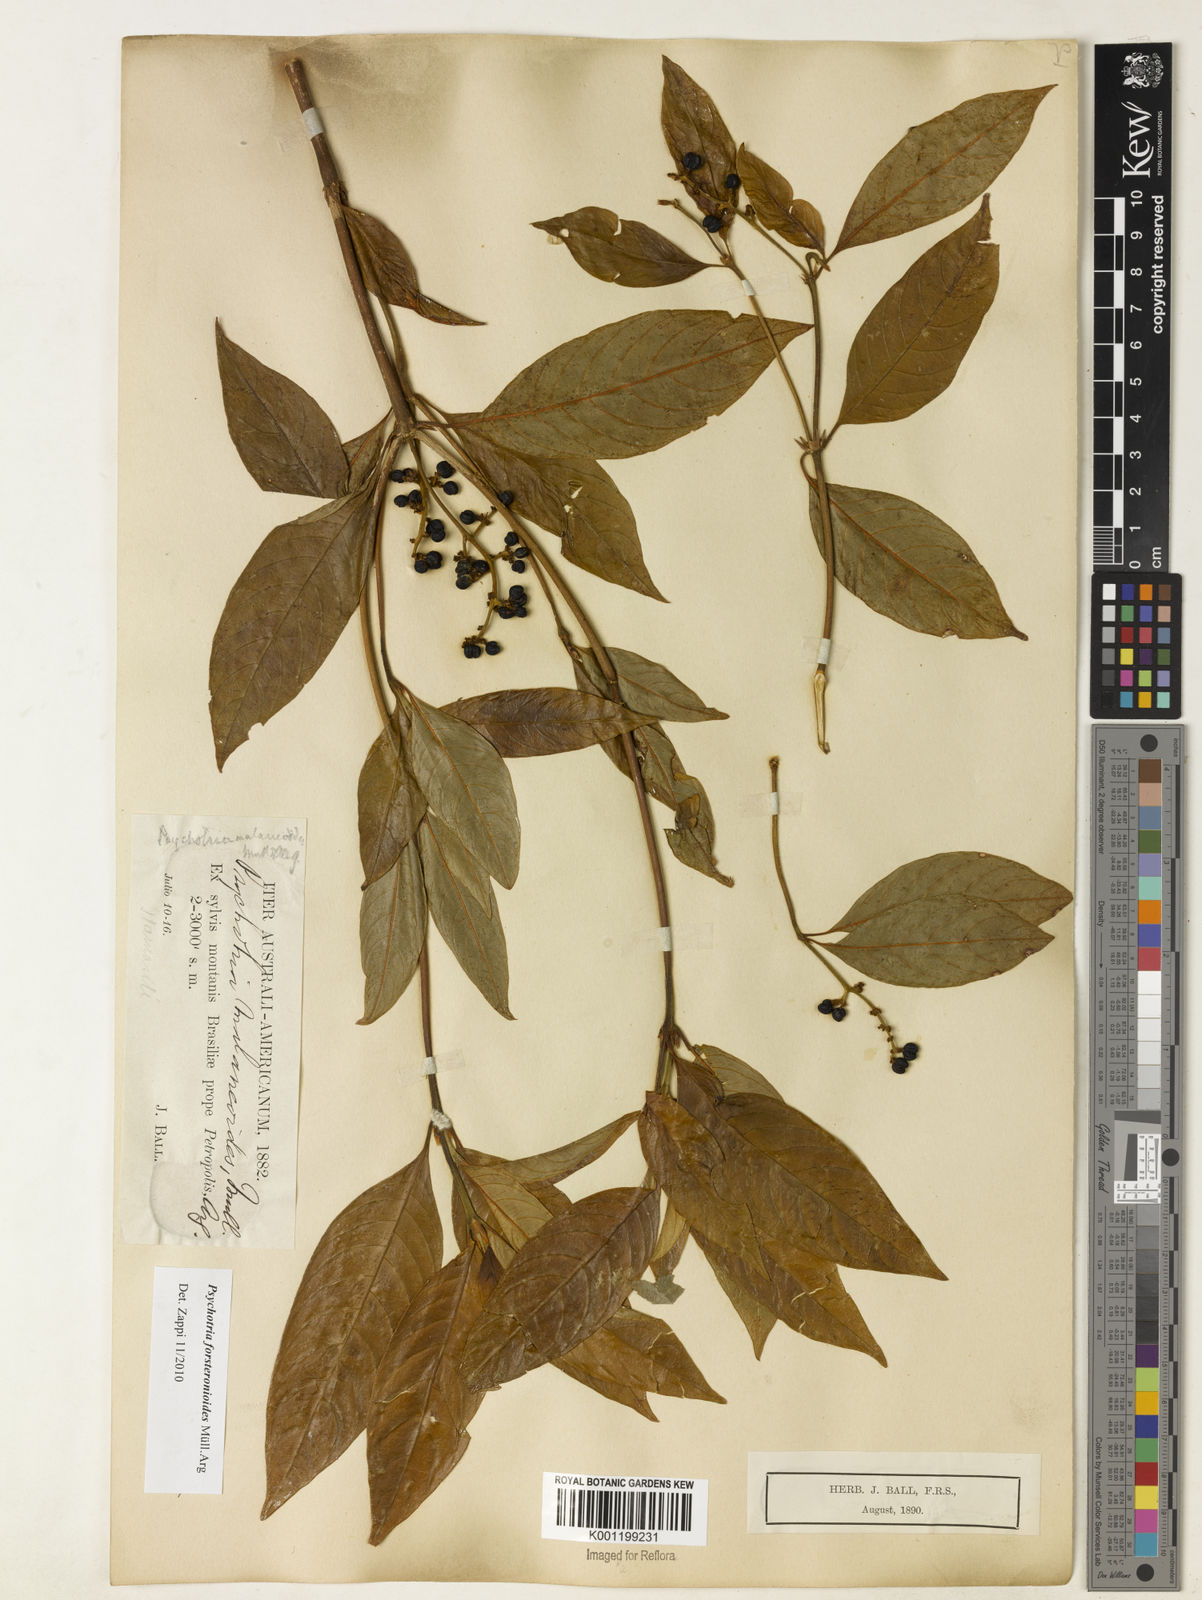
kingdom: Plantae
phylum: Tracheophyta
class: Magnoliopsida
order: Gentianales
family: Rubiaceae
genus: Psychotria
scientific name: Psychotria
